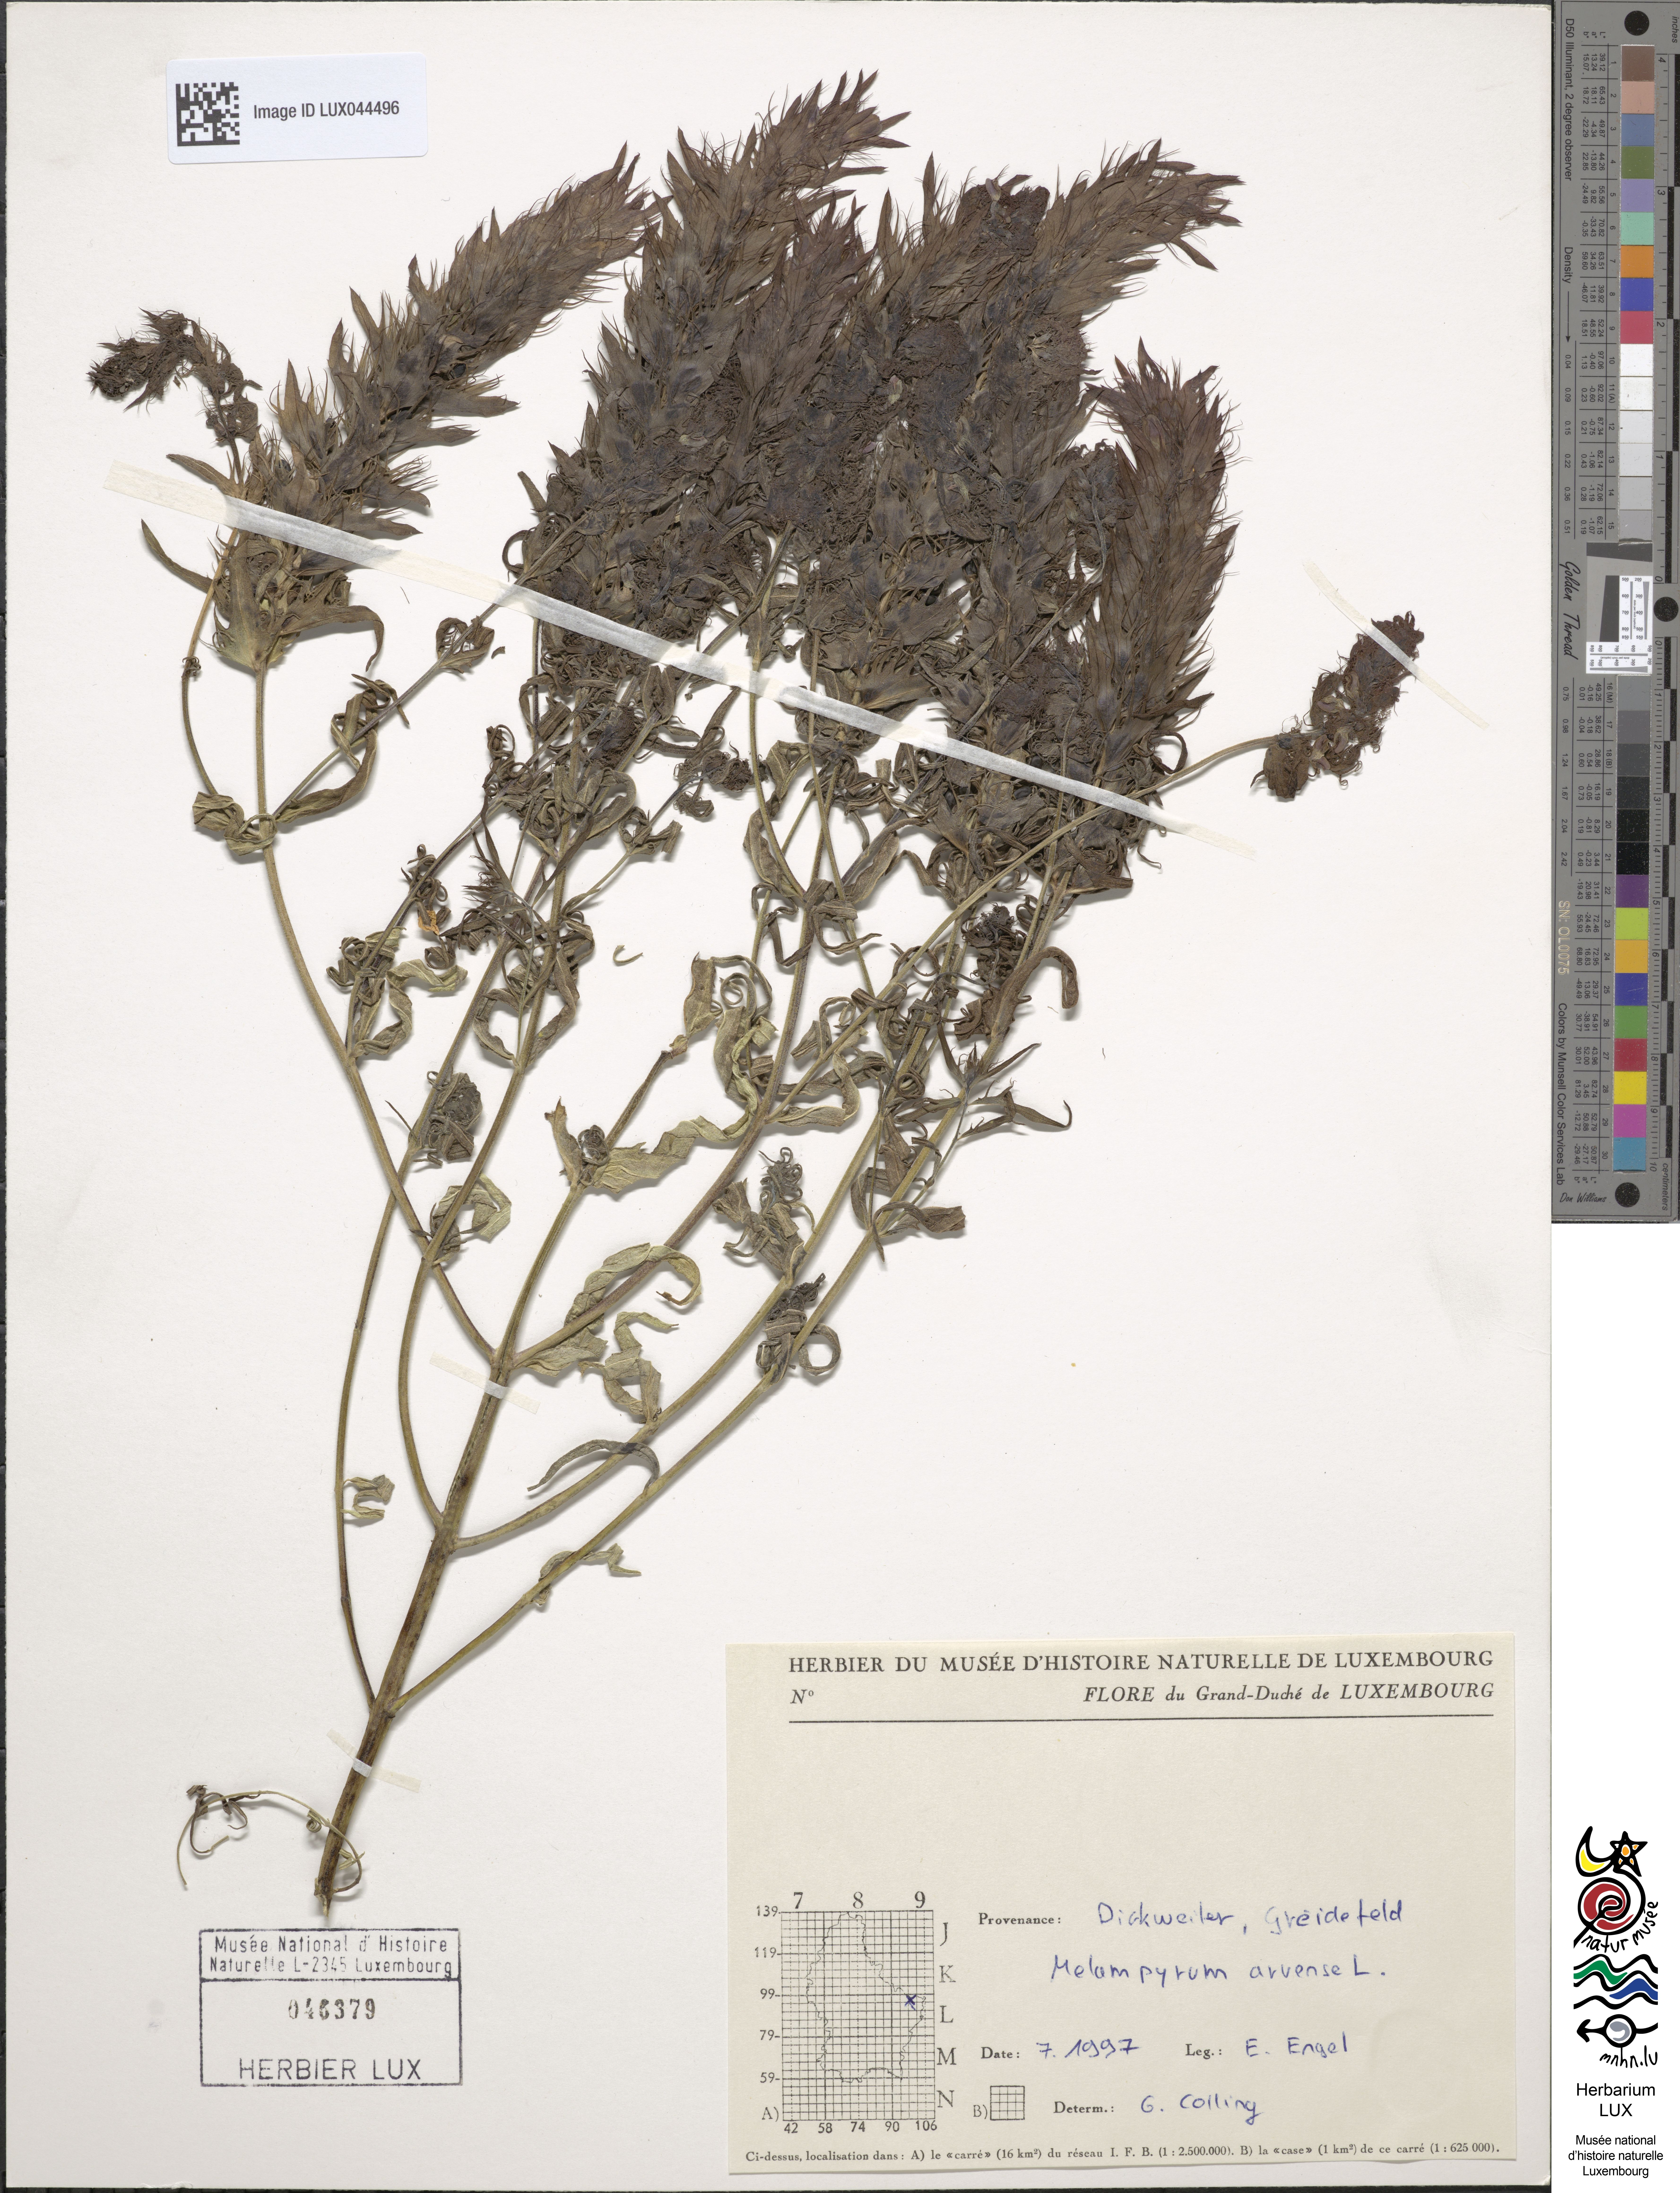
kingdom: Plantae
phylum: Tracheophyta
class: Magnoliopsida
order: Lamiales
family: Orobanchaceae
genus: Melampyrum
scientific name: Melampyrum arvense
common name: Field cow-wheat
